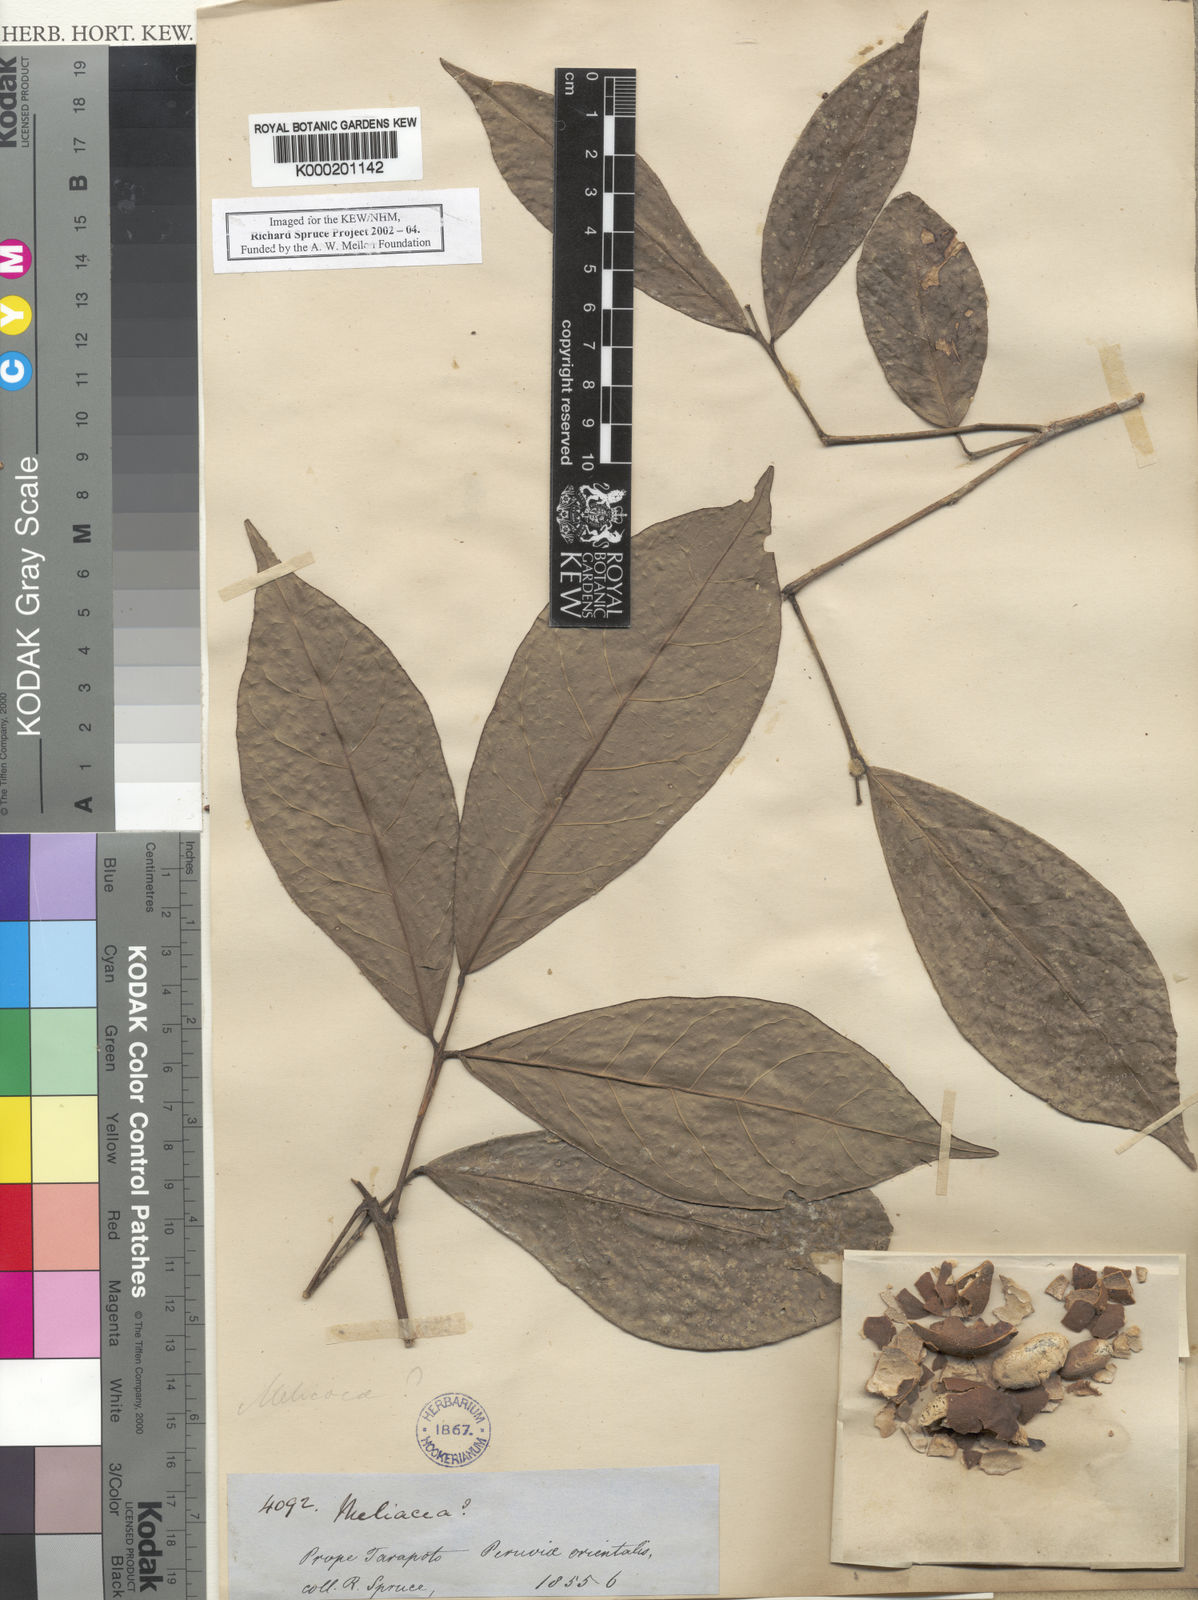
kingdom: Plantae
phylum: Tracheophyta
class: Magnoliopsida
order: Picramniales
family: Picramniaceae
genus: Nothotalisia
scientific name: Nothotalisia
